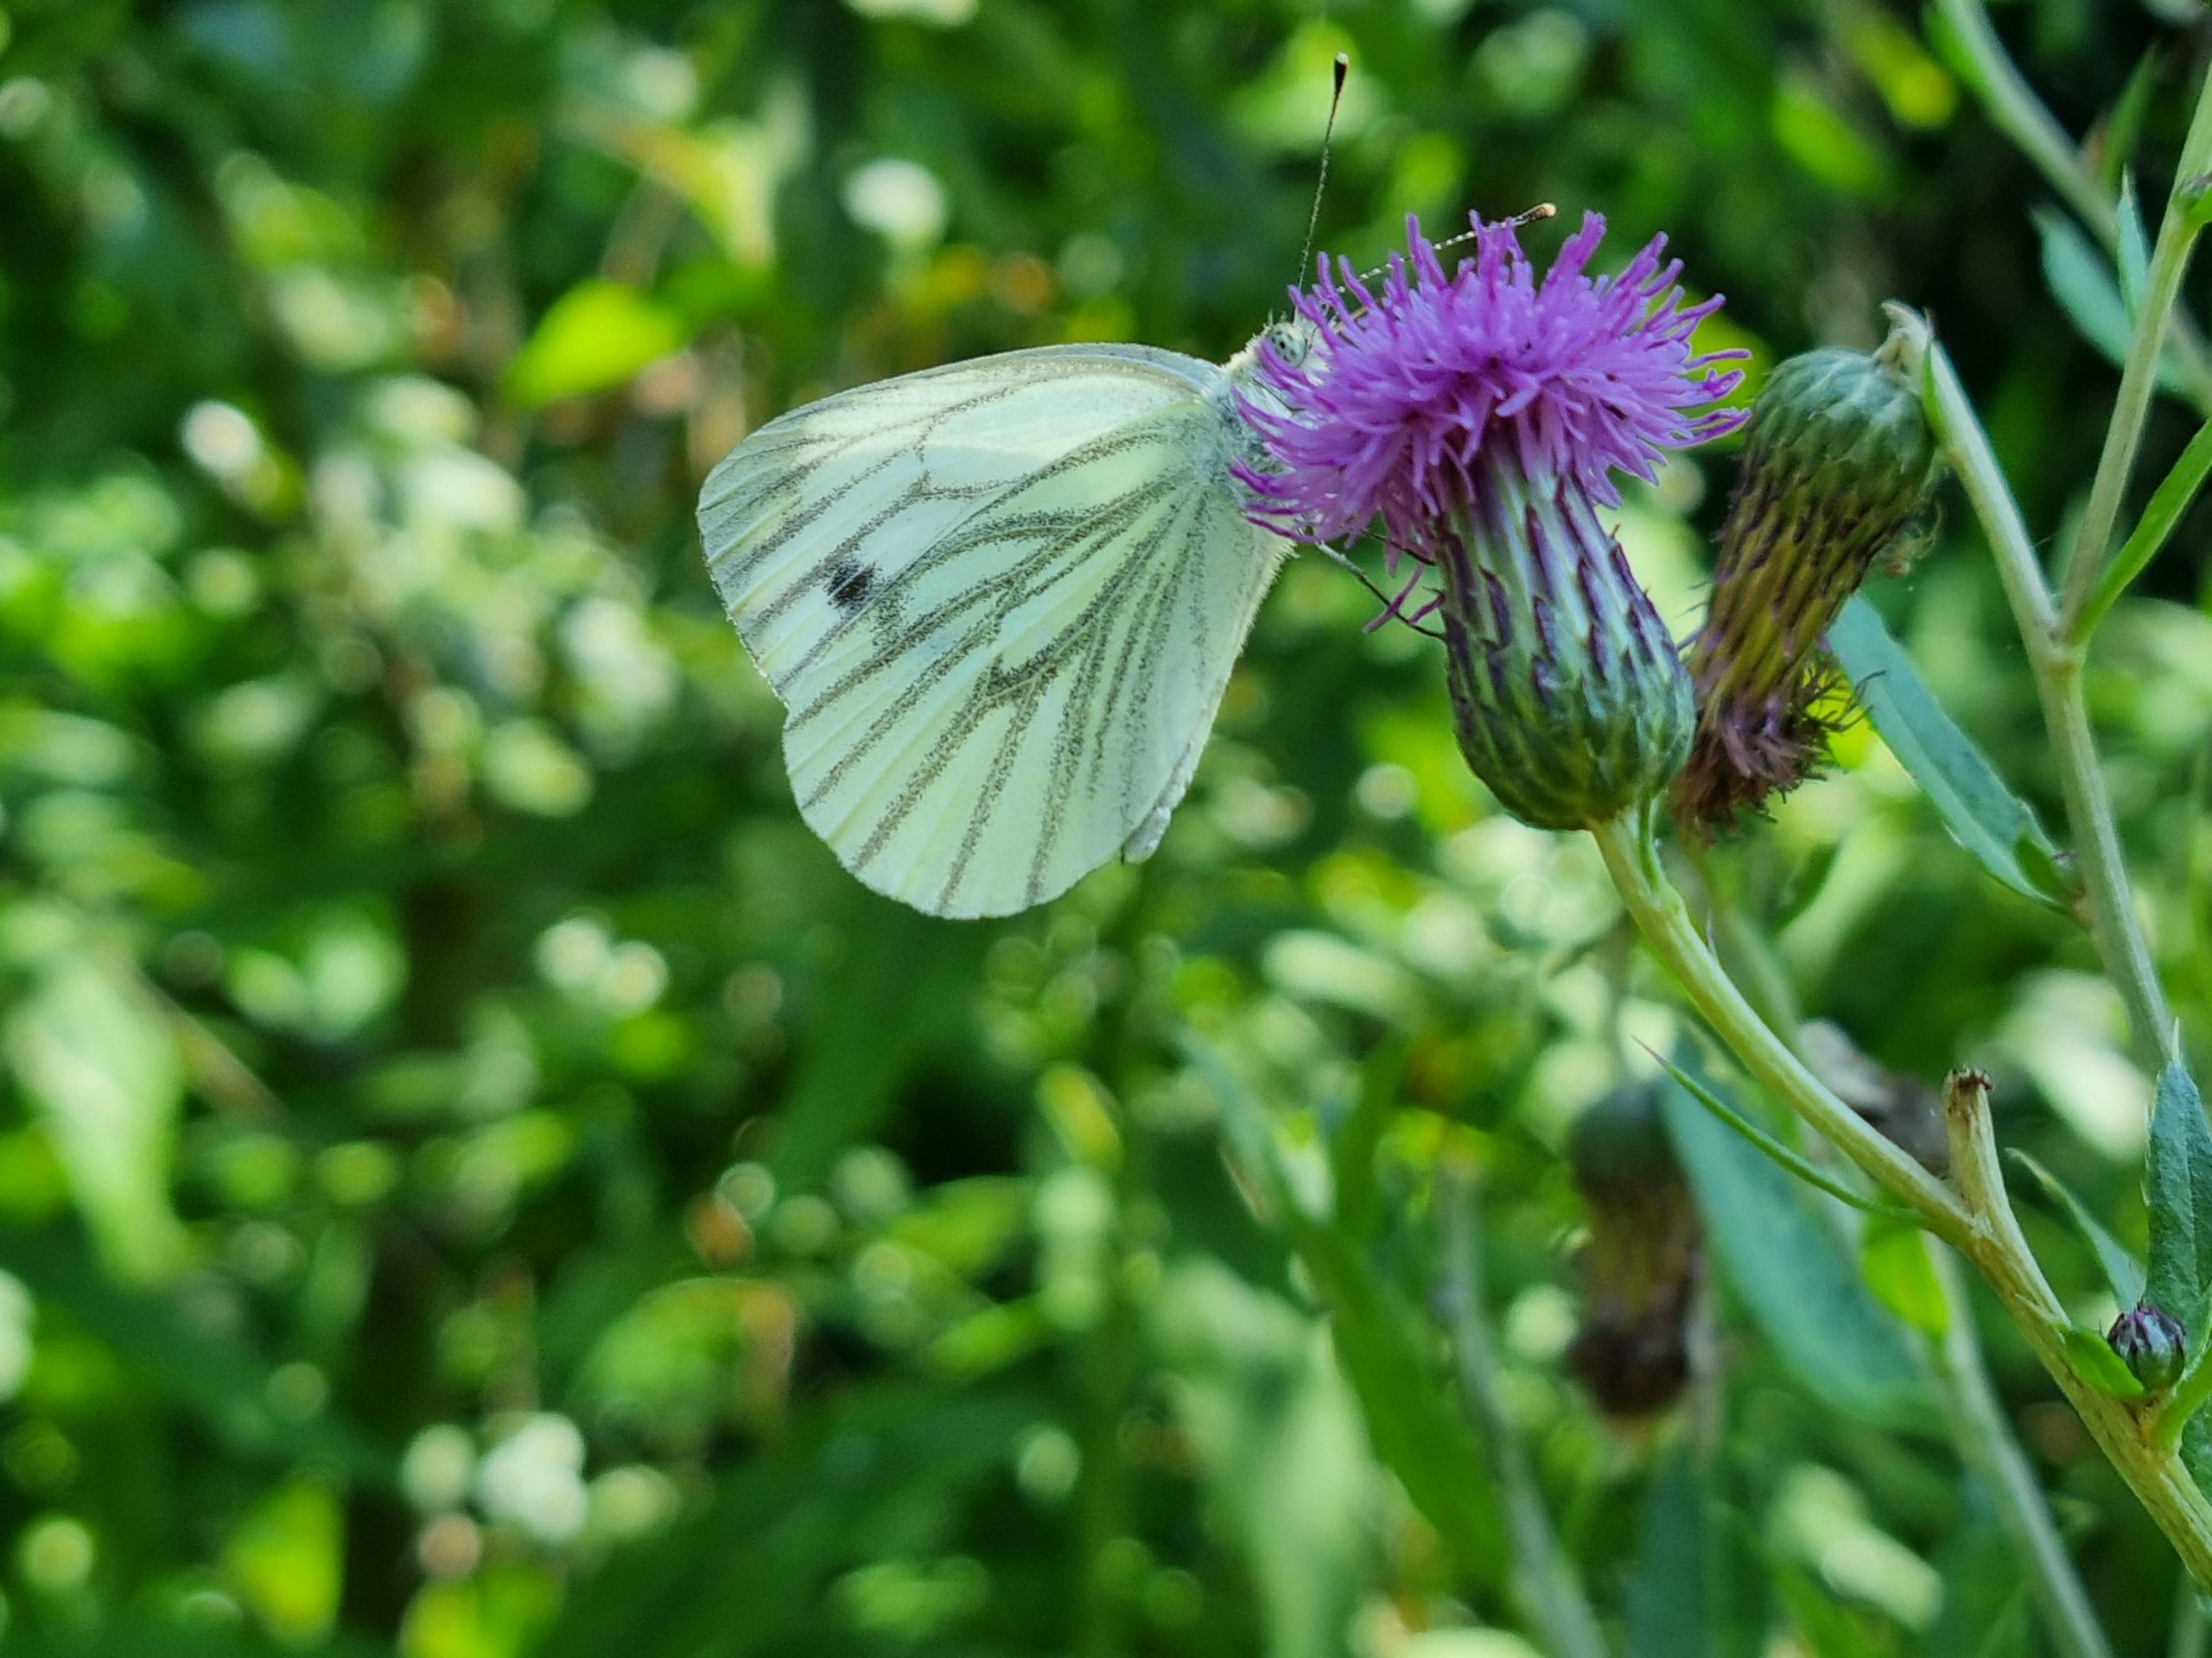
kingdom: Animalia
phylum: Arthropoda
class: Insecta
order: Lepidoptera
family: Pieridae
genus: Pieris
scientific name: Pieris napi
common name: Grønåret kålsommerfugl
